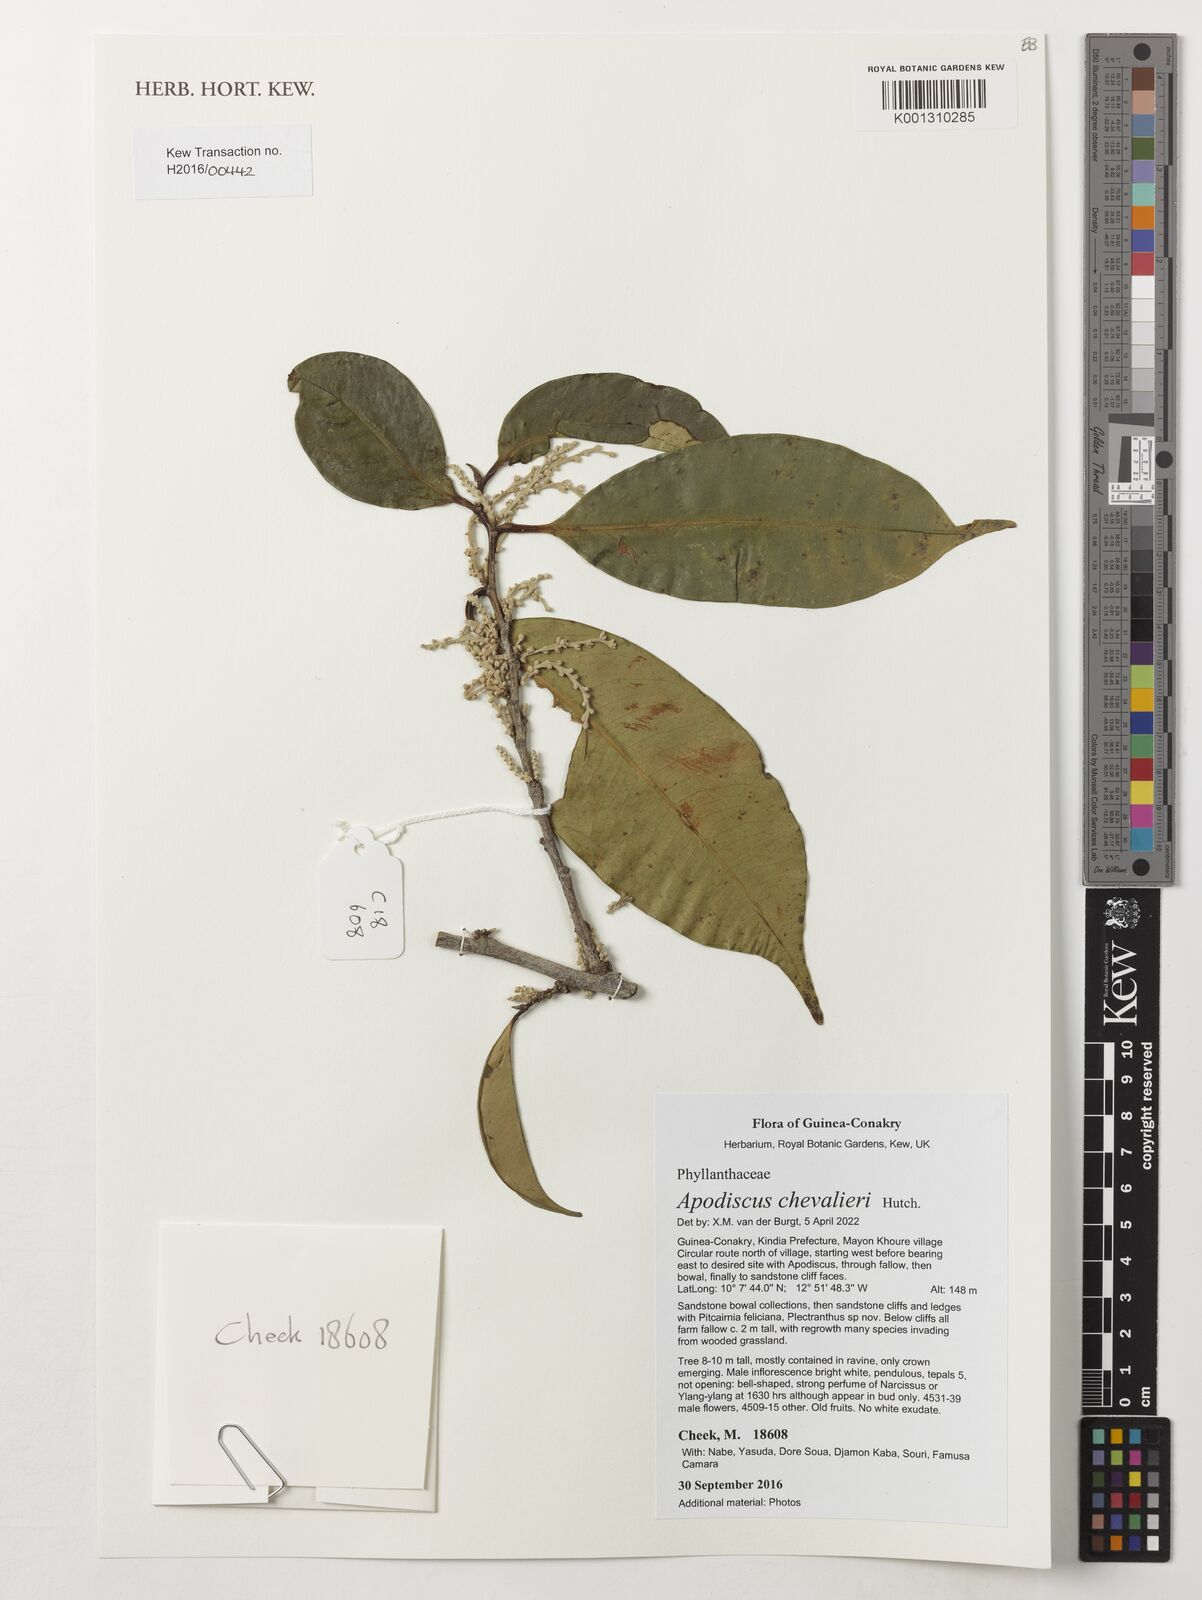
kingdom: Plantae
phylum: Tracheophyta
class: Magnoliopsida
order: Malpighiales
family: Phyllanthaceae
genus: Apodiscus
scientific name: Apodiscus chevalieri
